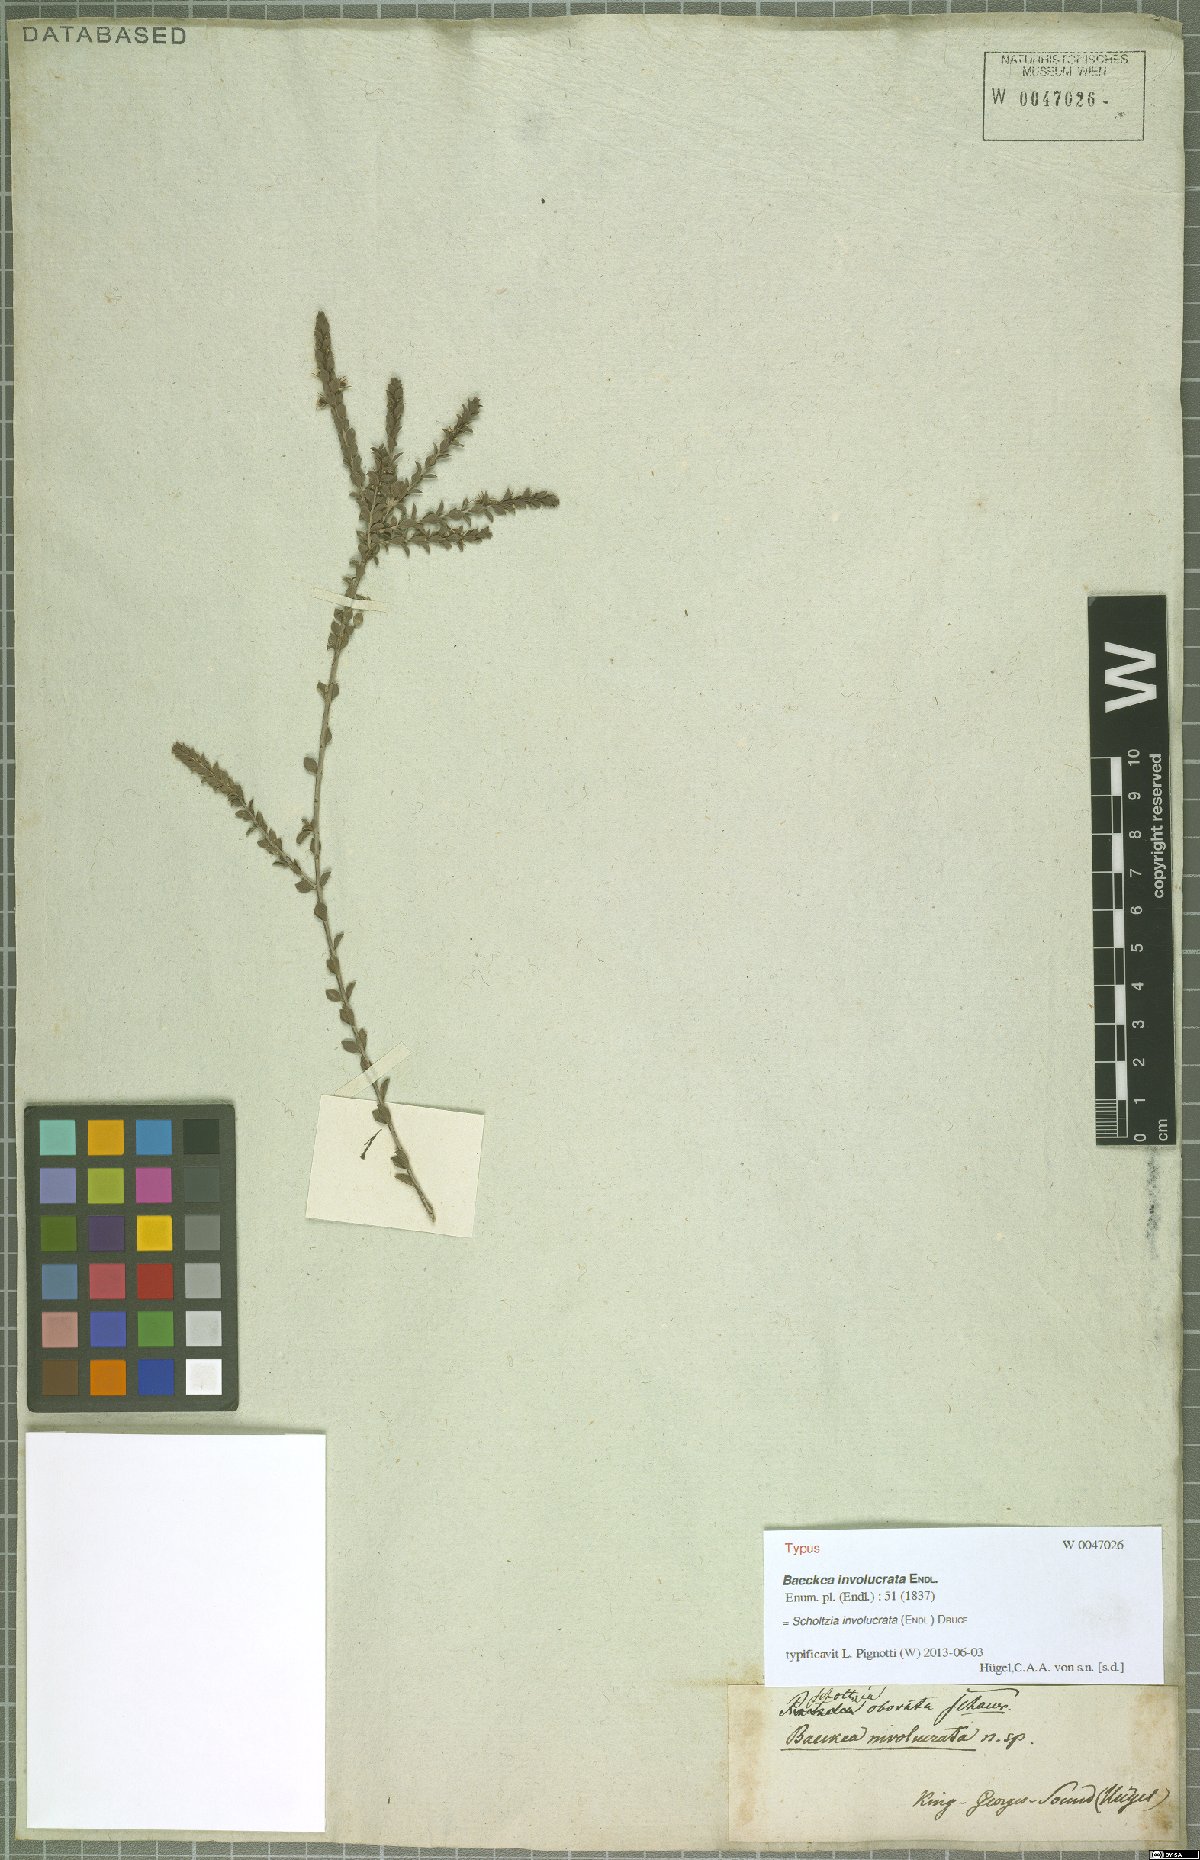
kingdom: Plantae
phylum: Tracheophyta
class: Magnoliopsida
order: Myrtales
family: Myrtaceae
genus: Scholtzia
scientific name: Scholtzia obovata
